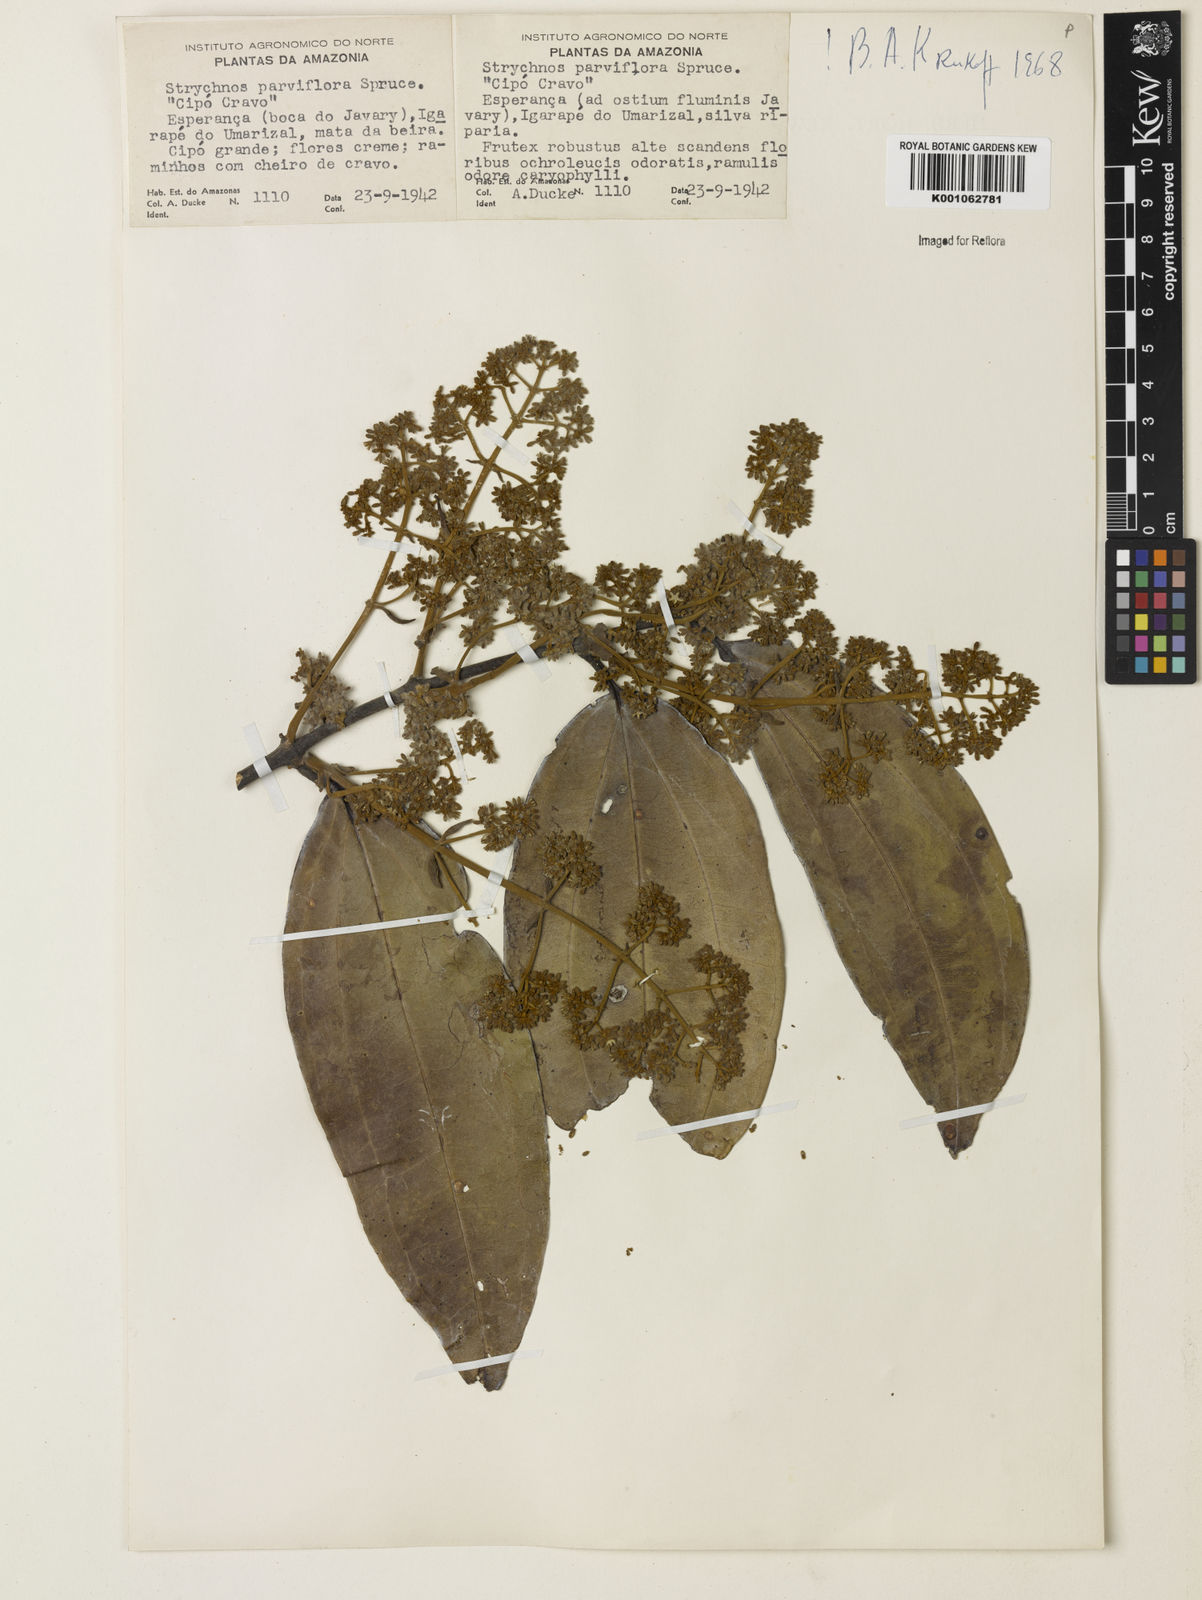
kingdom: Plantae
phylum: Tracheophyta
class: Magnoliopsida
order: Gentianales
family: Loganiaceae
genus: Strychnos
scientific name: Strychnos parviflora
